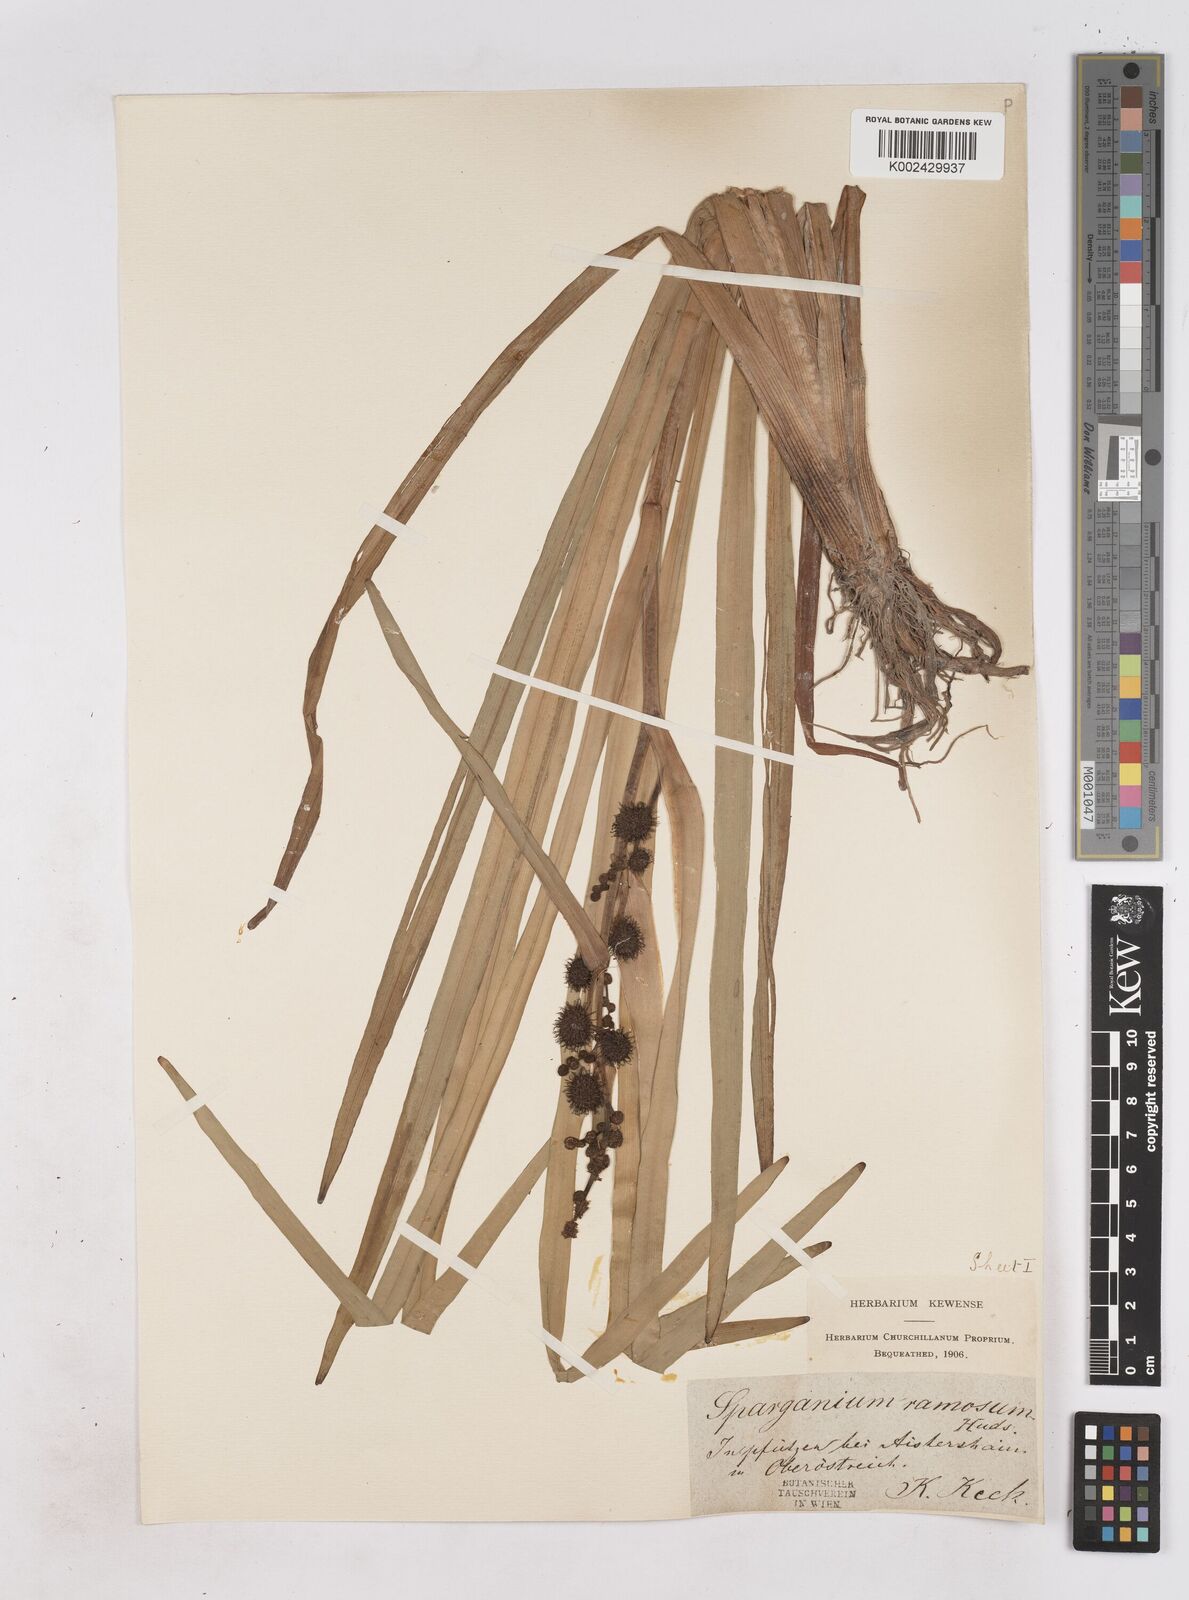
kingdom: Plantae
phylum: Tracheophyta
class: Liliopsida
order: Poales
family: Typhaceae
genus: Sparganium
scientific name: Sparganium erectum
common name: Branched bur-reed
